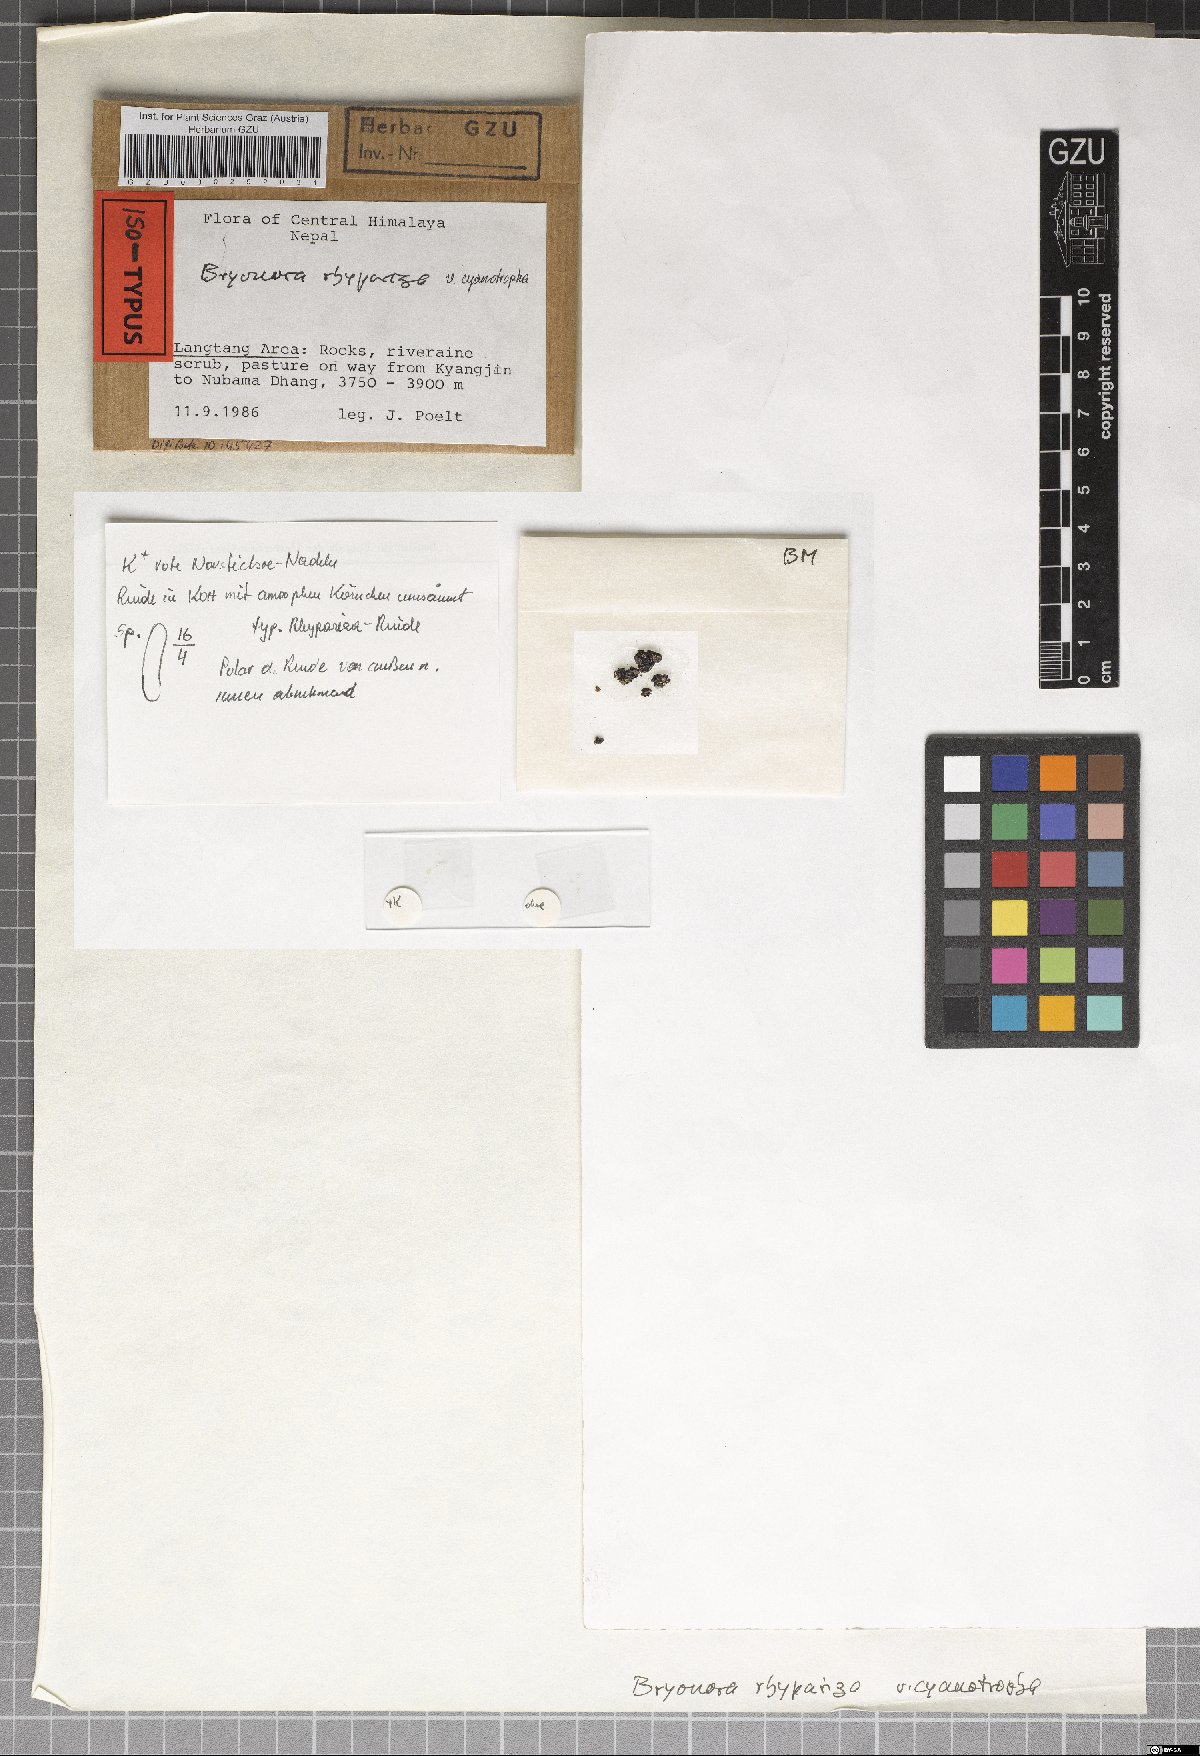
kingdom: Fungi
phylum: Ascomycota
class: Lecanoromycetes
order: Lecanorales
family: Lecanoraceae
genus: Bryodina
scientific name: Bryodina rhypariza
